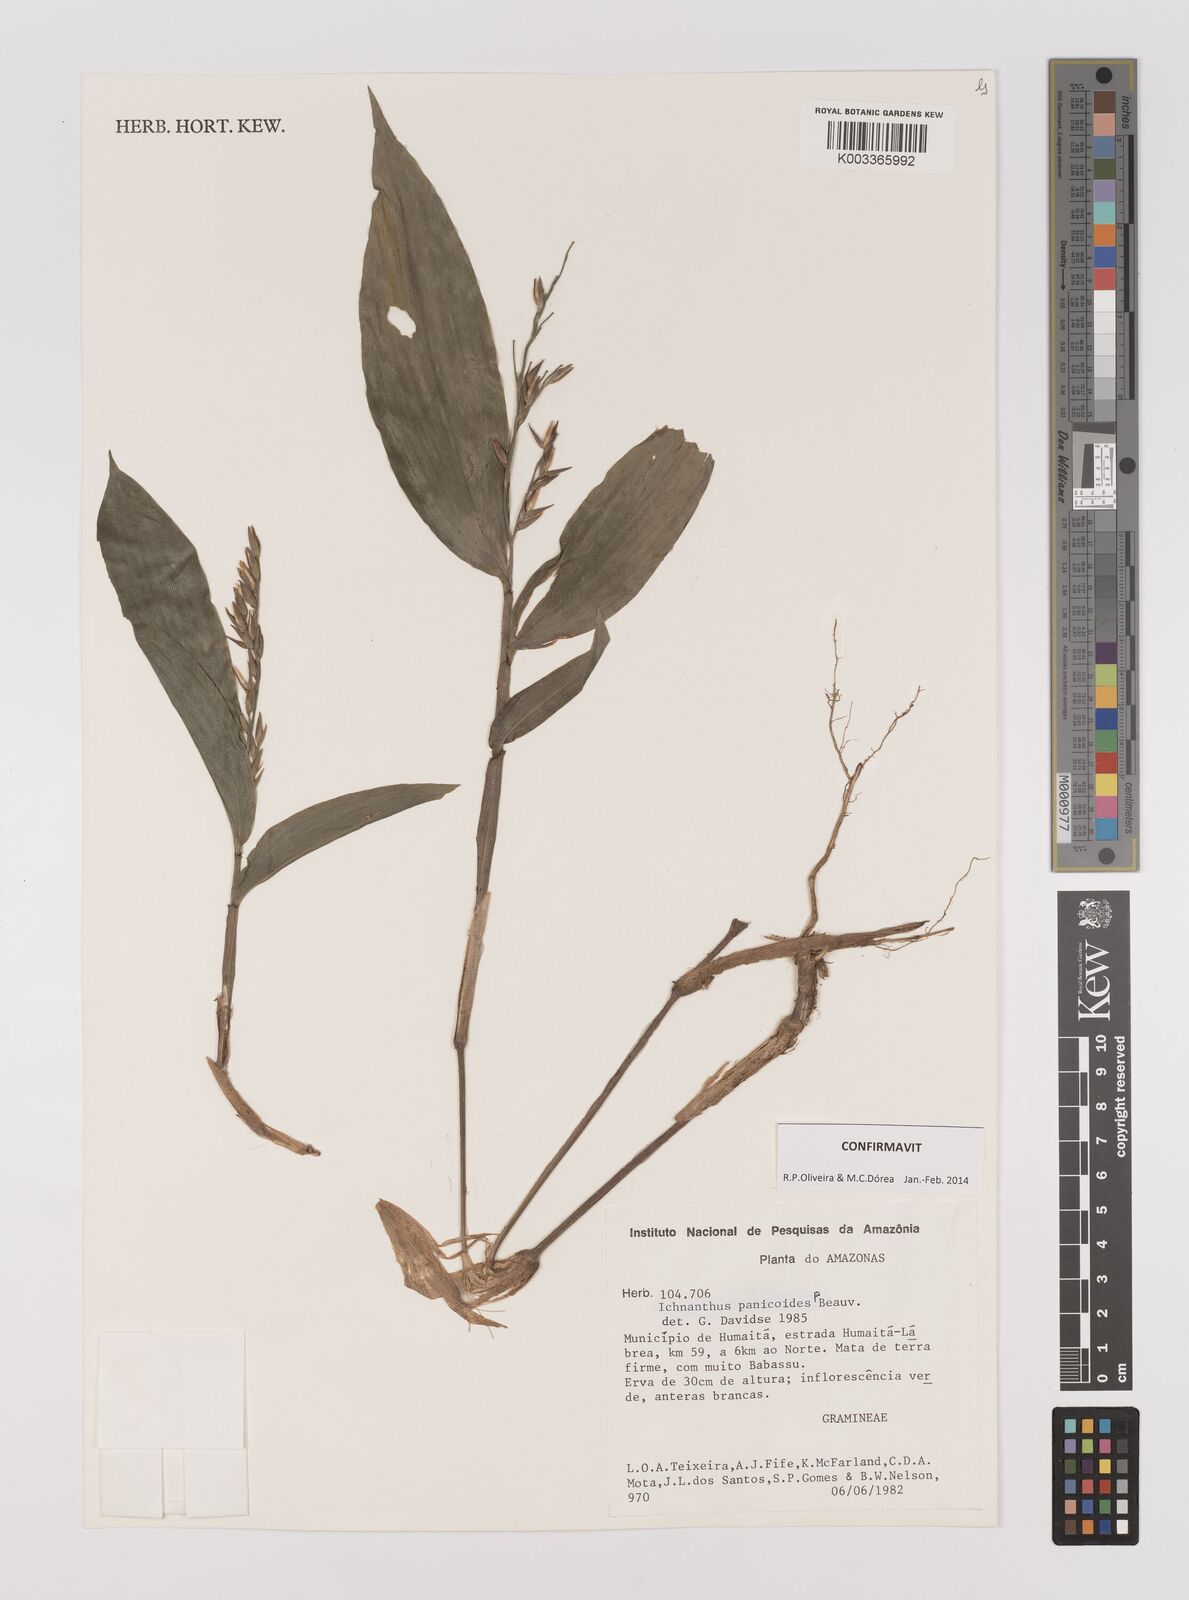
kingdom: Plantae
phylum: Tracheophyta
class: Liliopsida
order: Poales
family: Poaceae
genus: Ichnanthus
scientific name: Ichnanthus panicoides
